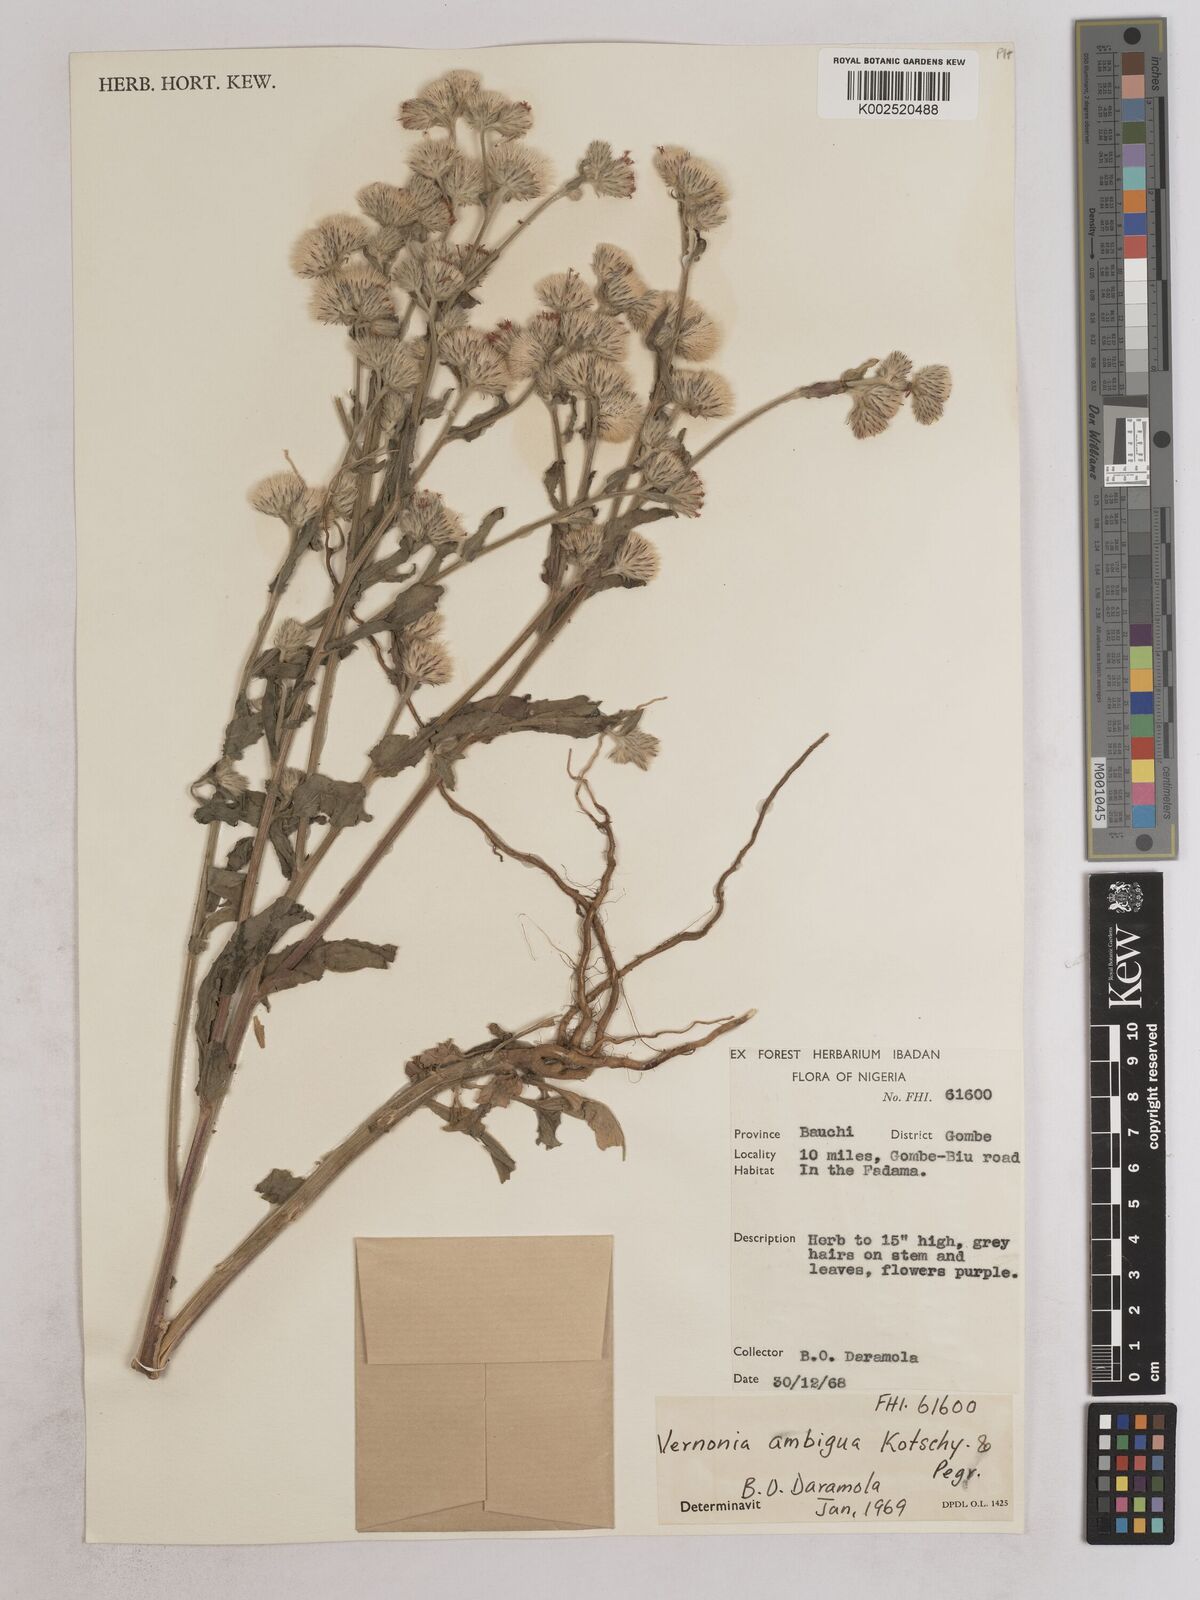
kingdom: Plantae
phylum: Tracheophyta
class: Magnoliopsida
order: Asterales
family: Asteraceae
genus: Vernoniastrum
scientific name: Vernoniastrum ambiguum
